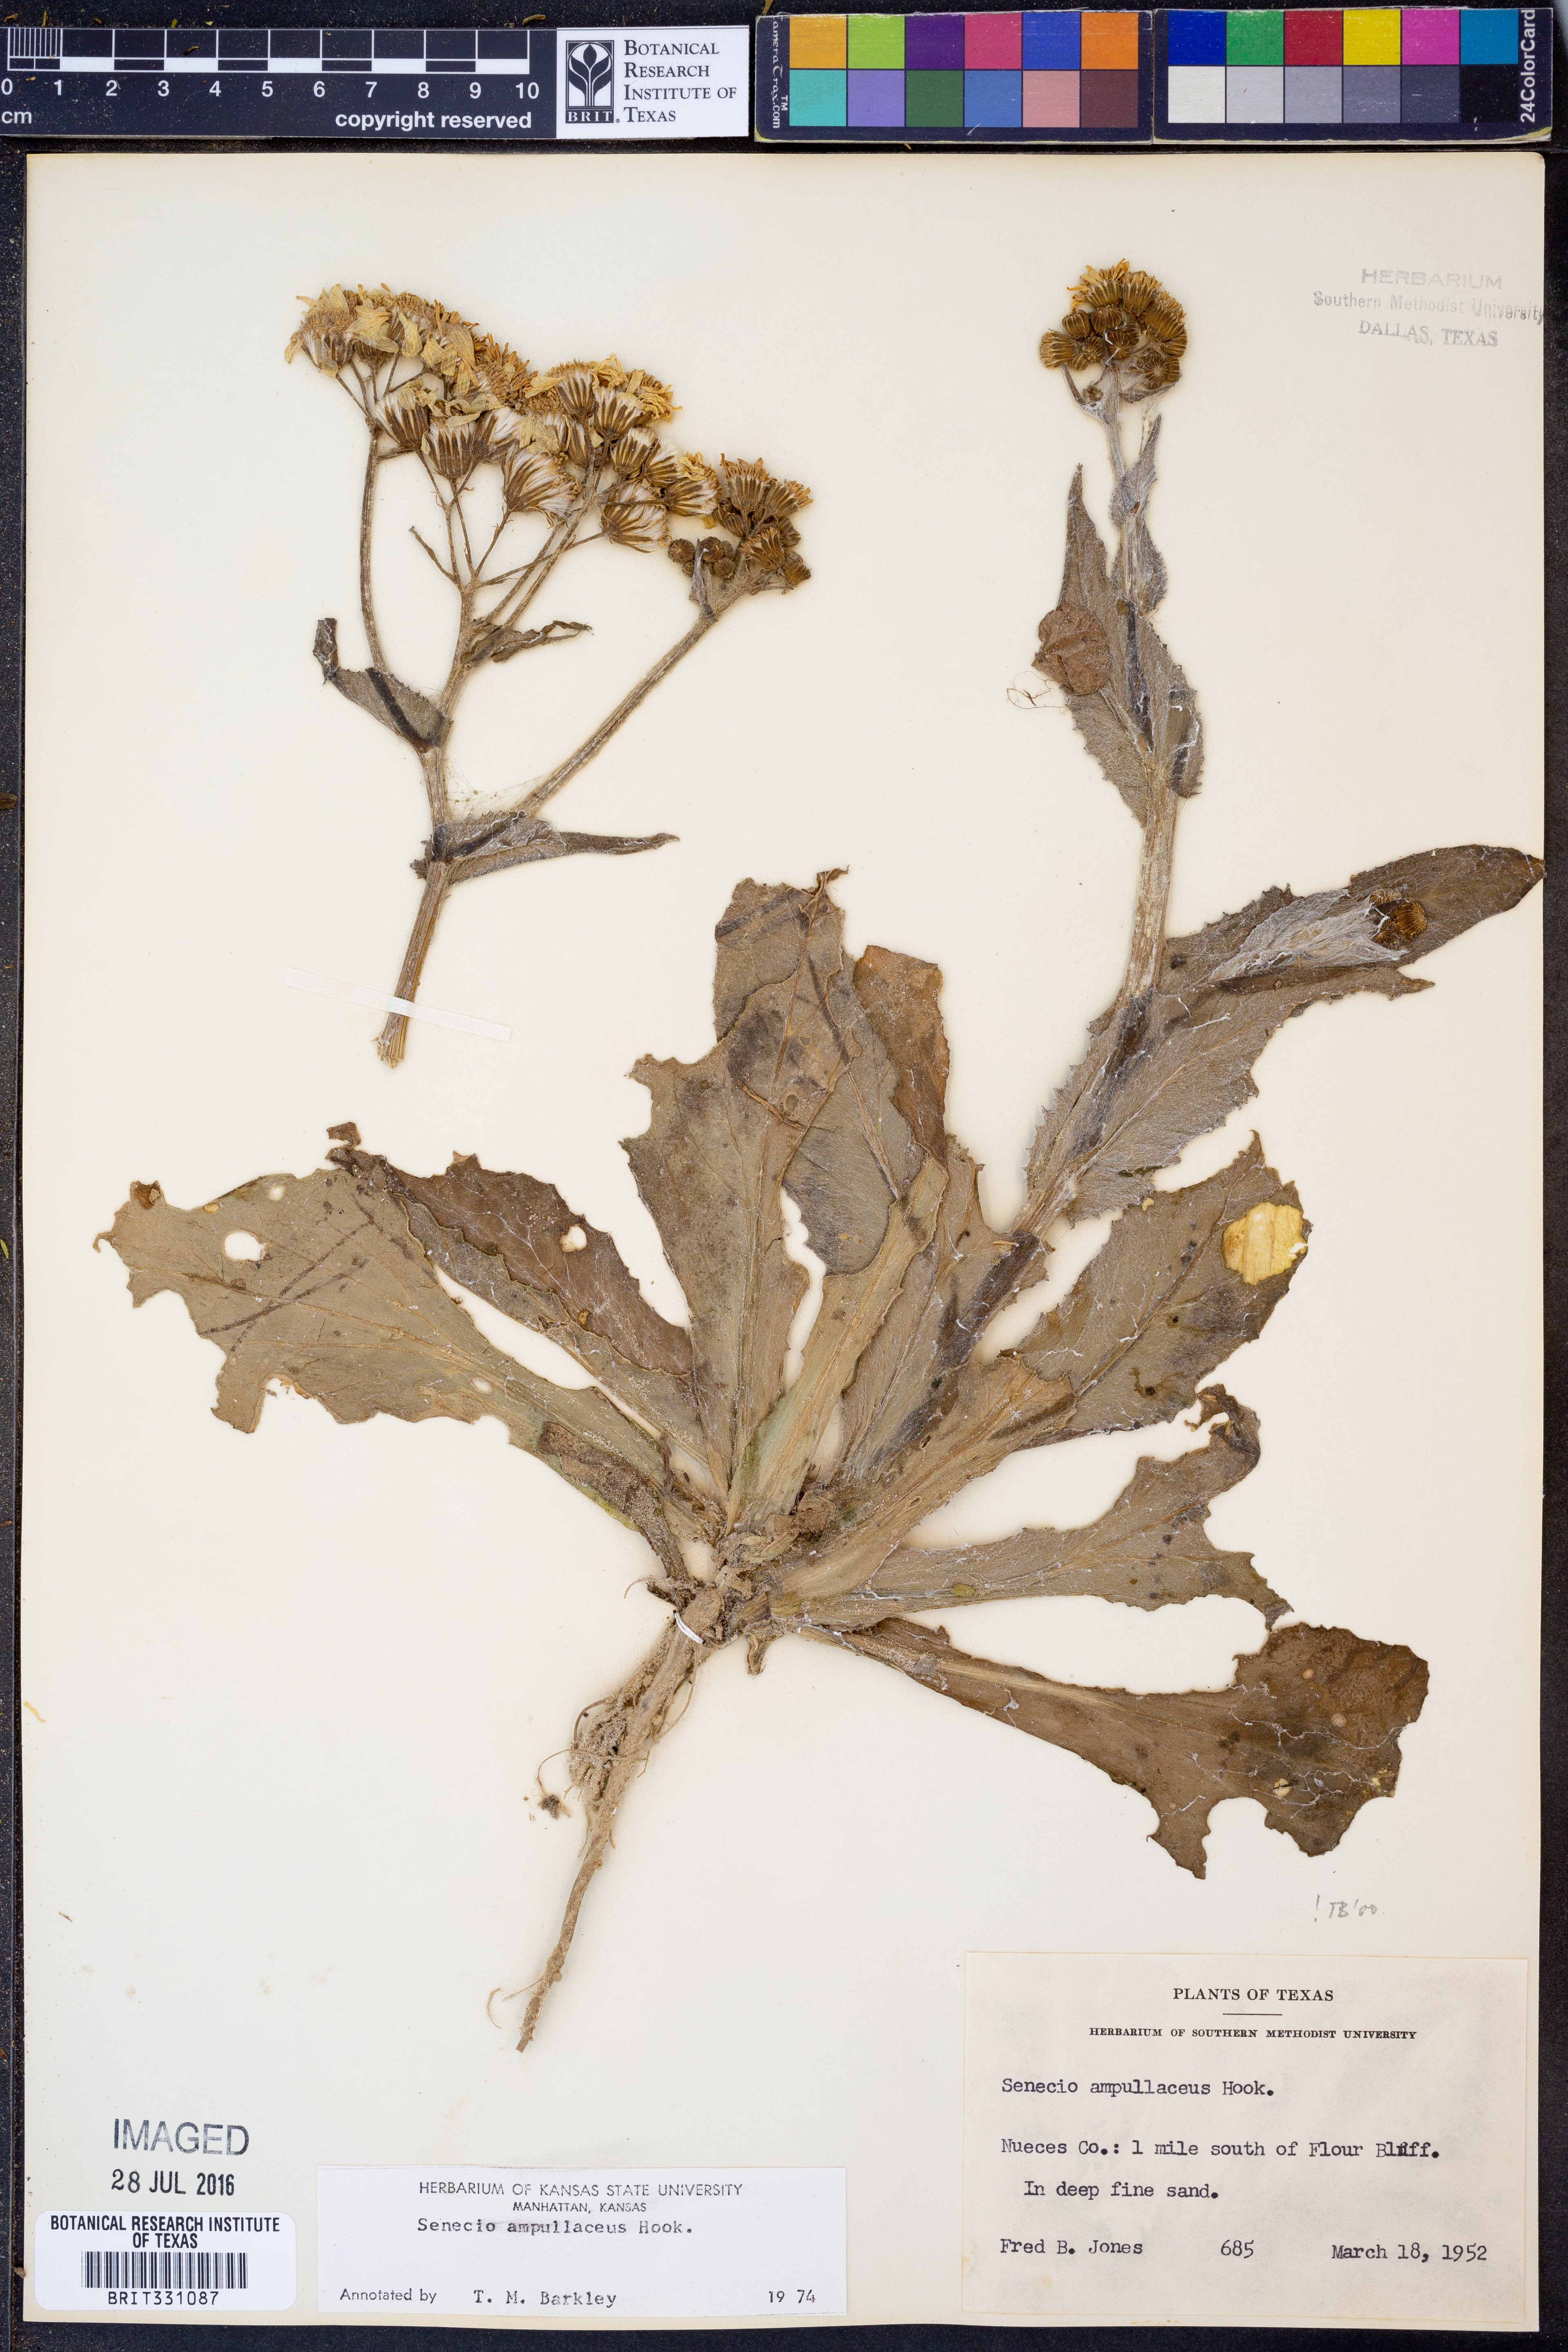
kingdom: Plantae
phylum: Tracheophyta
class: Magnoliopsida
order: Asterales
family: Asteraceae
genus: Senecio
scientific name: Senecio ampullaceus
